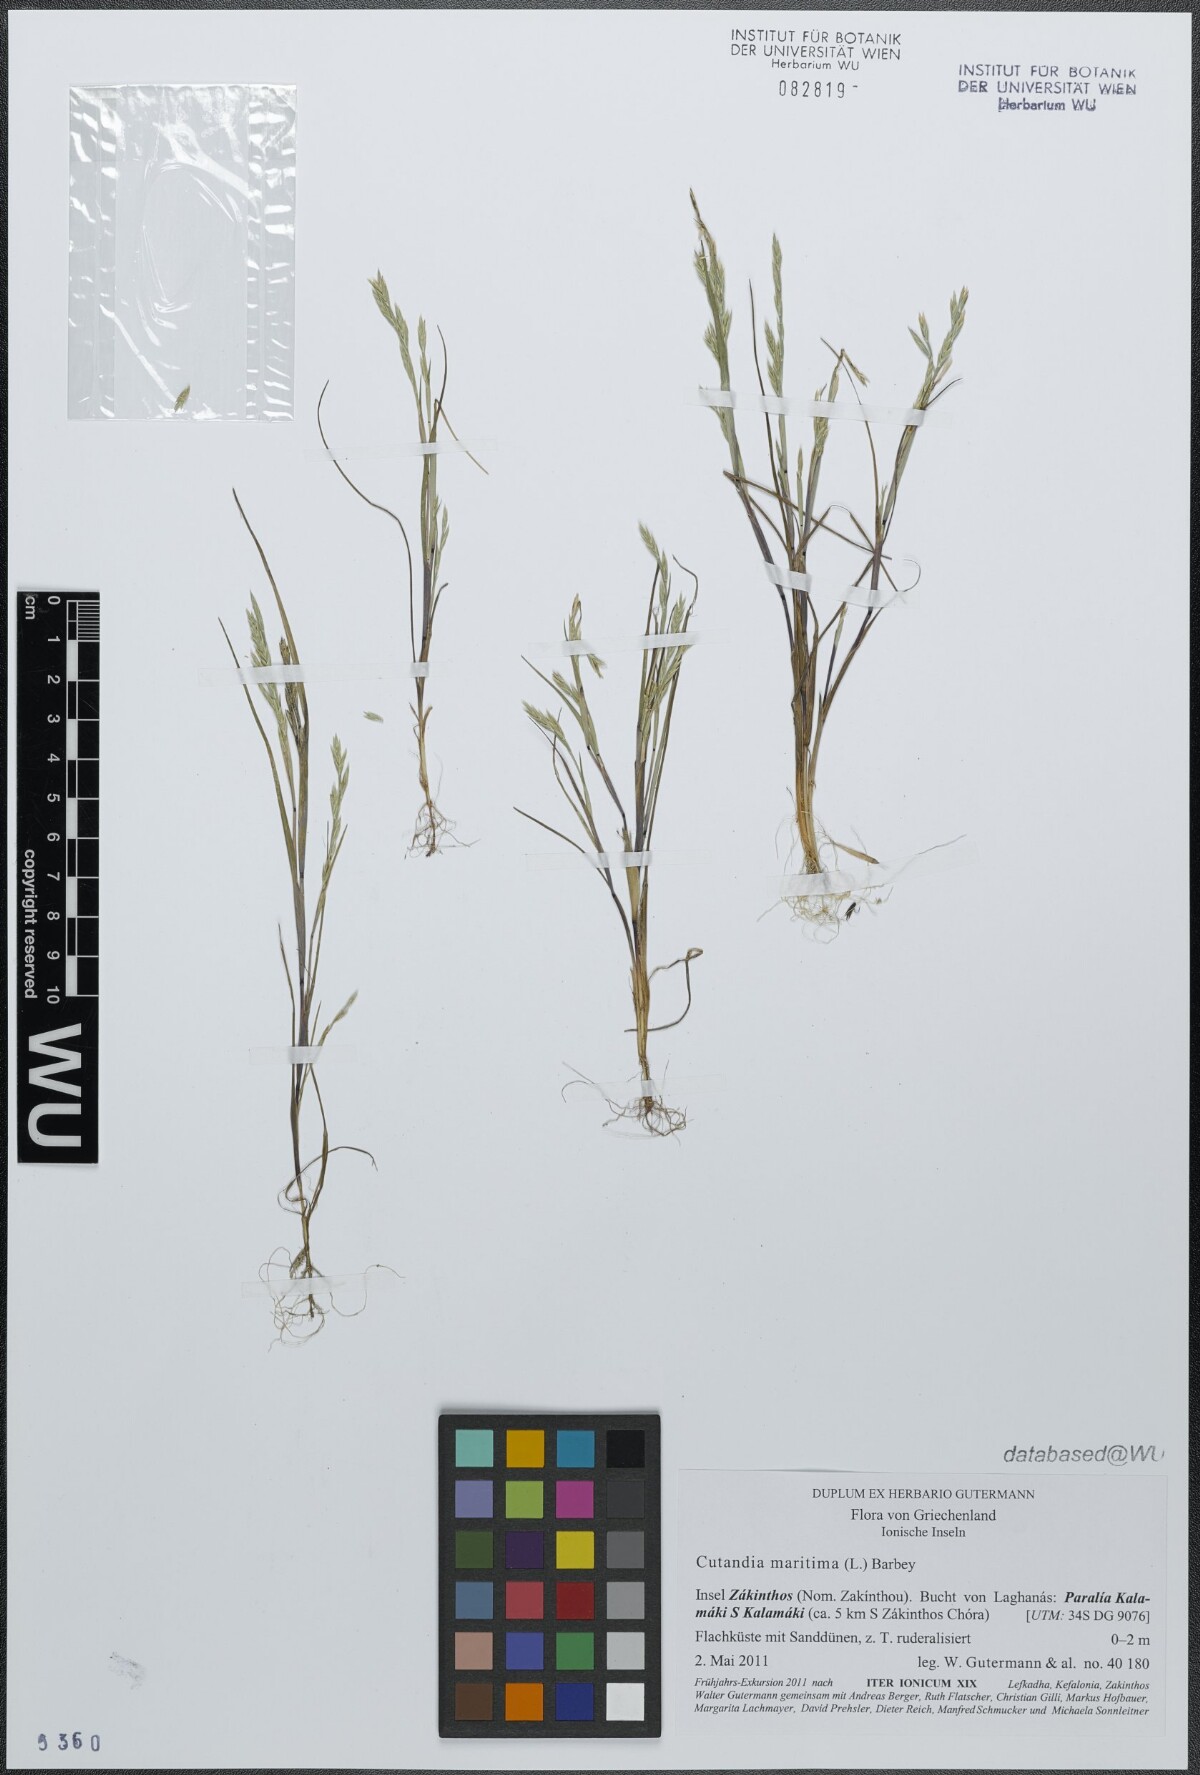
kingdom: Plantae
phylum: Tracheophyta
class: Liliopsida
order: Poales
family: Poaceae
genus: Cutandia
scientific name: Cutandia maritima
